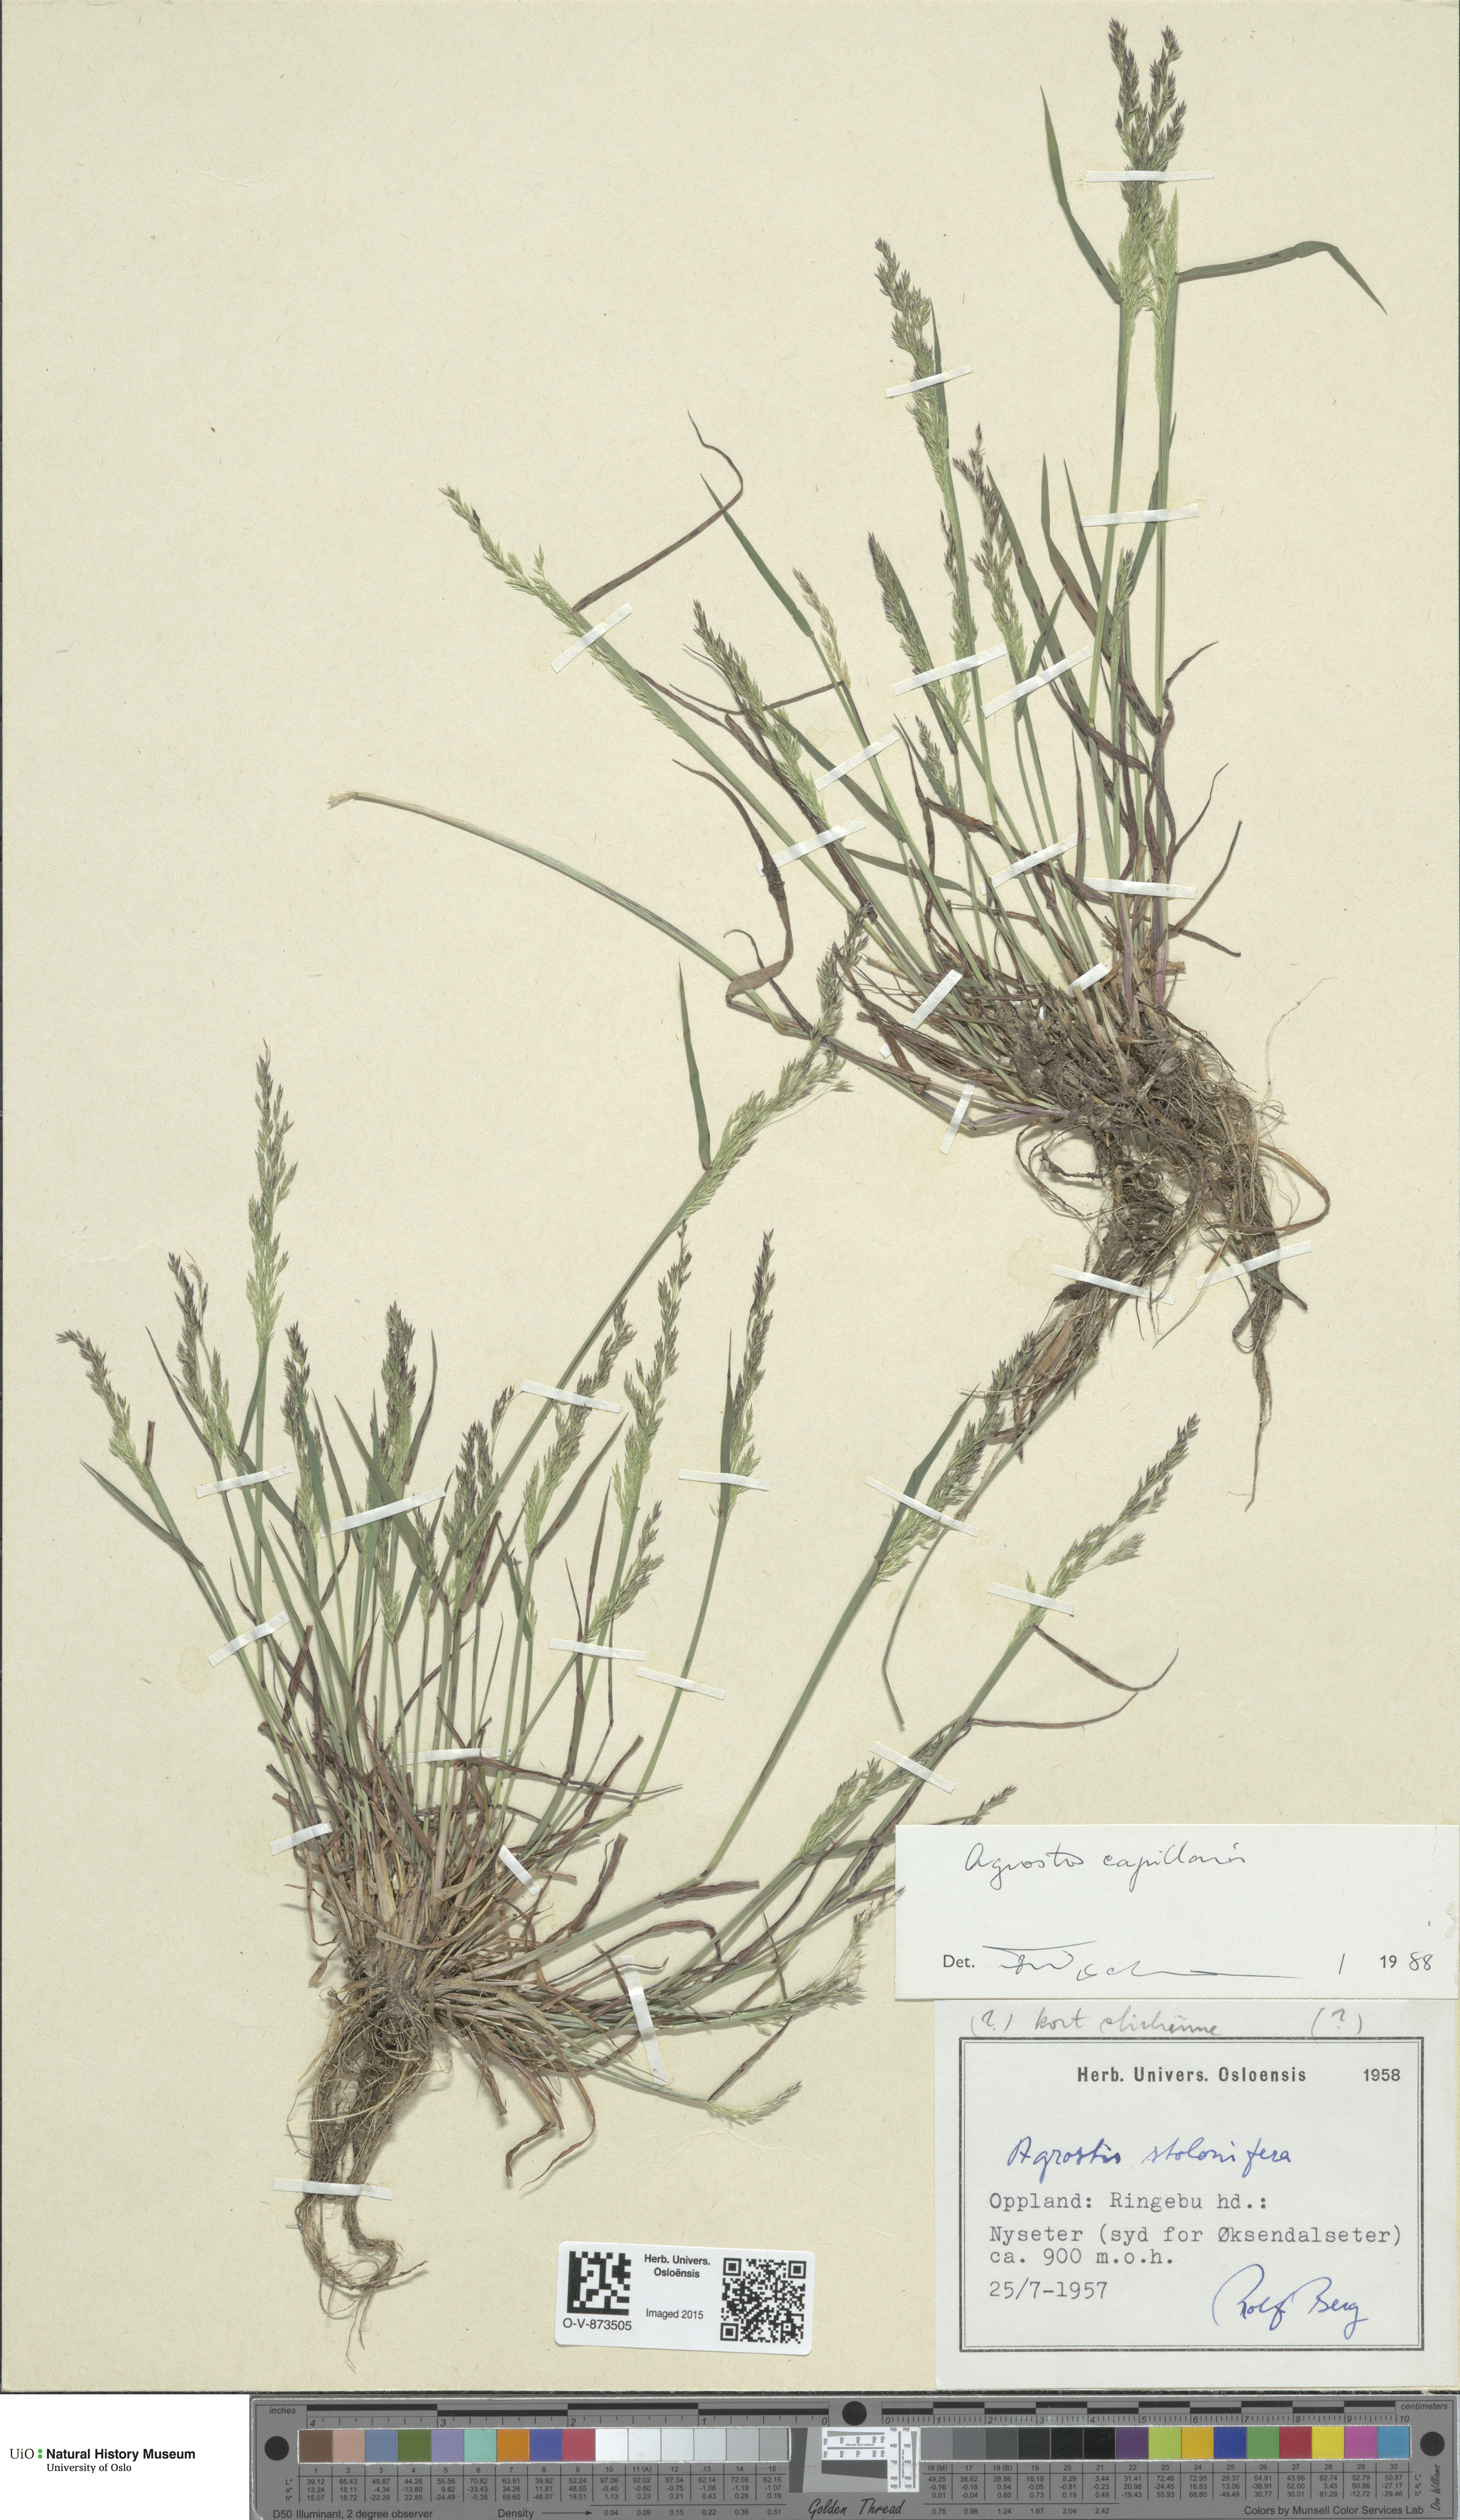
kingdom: Plantae
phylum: Tracheophyta
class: Liliopsida
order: Poales
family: Poaceae
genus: Agrostis
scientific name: Agrostis capillaris
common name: Colonial bentgrass
